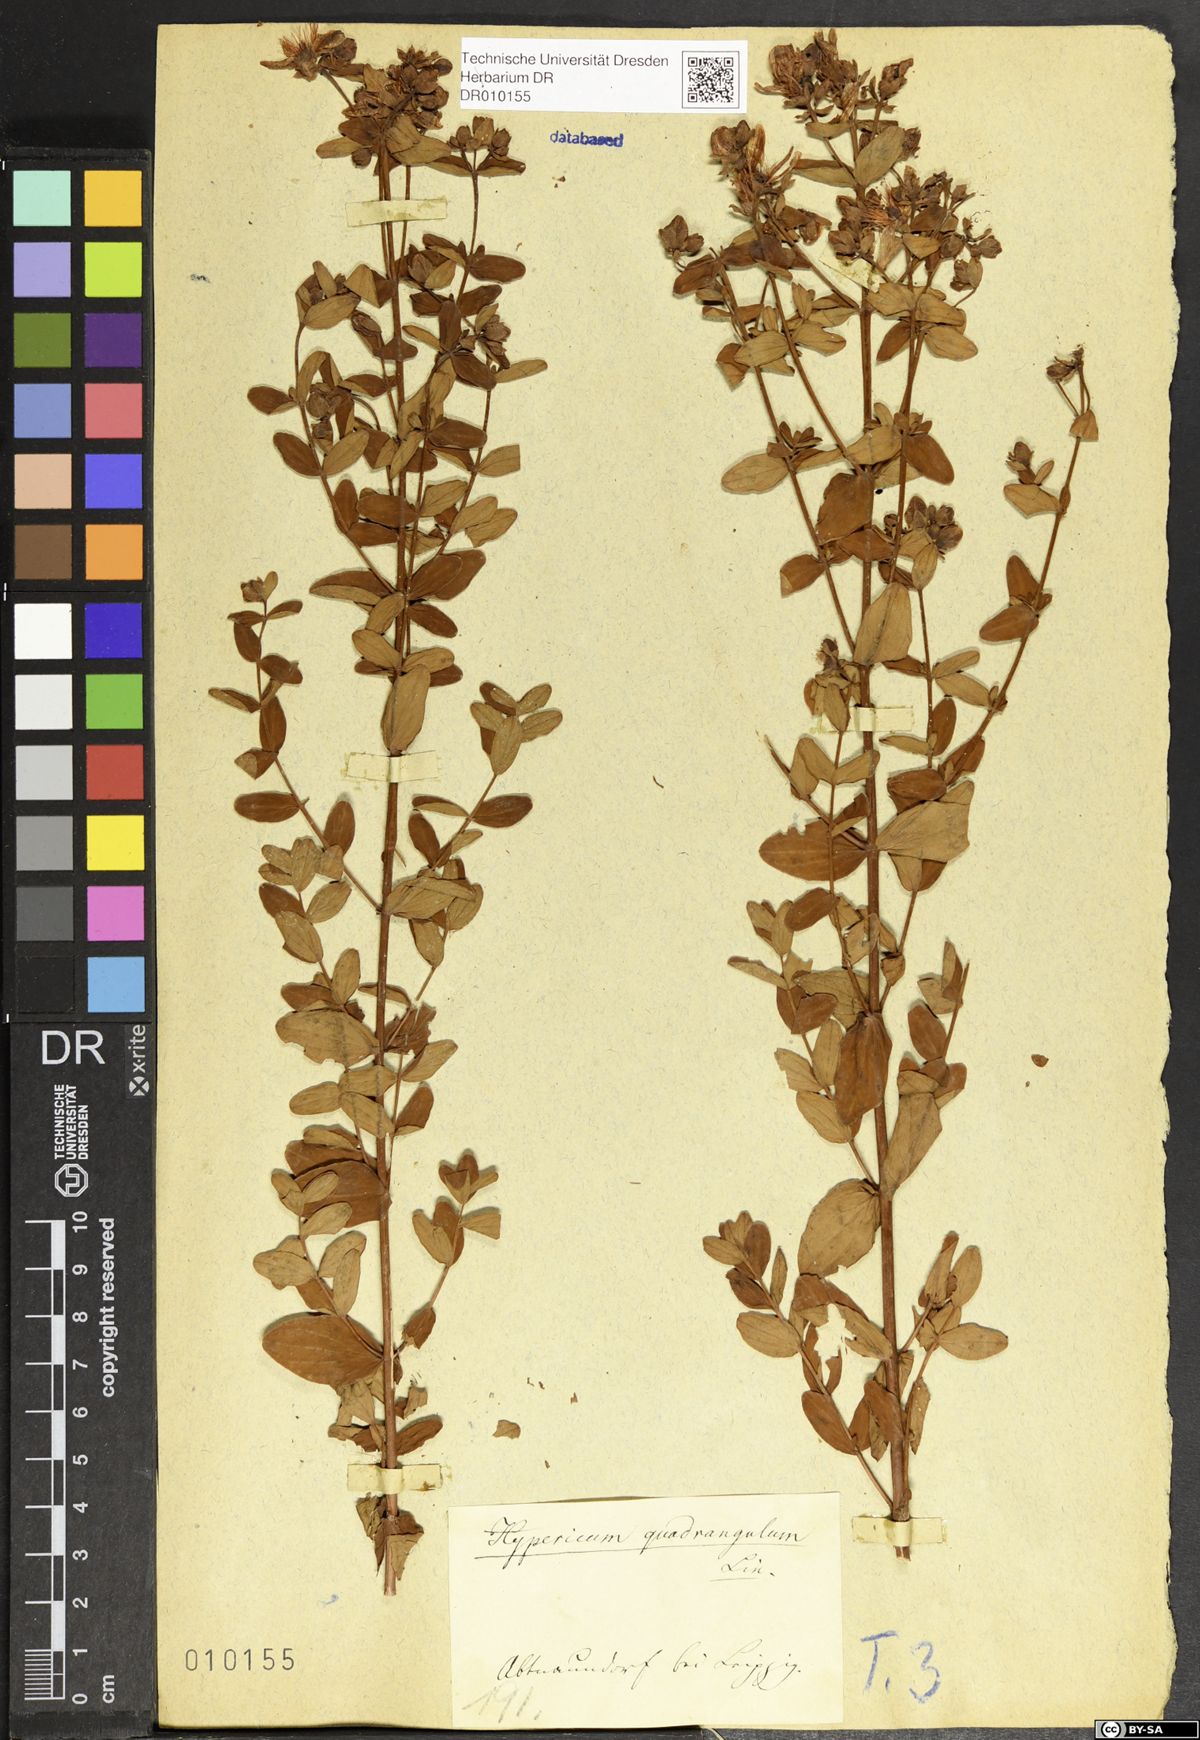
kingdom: Plantae
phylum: Tracheophyta
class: Magnoliopsida
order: Malpighiales
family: Hypericaceae
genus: Hypericum
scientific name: Hypericum maculatum
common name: Imperforate st. john's-wort
